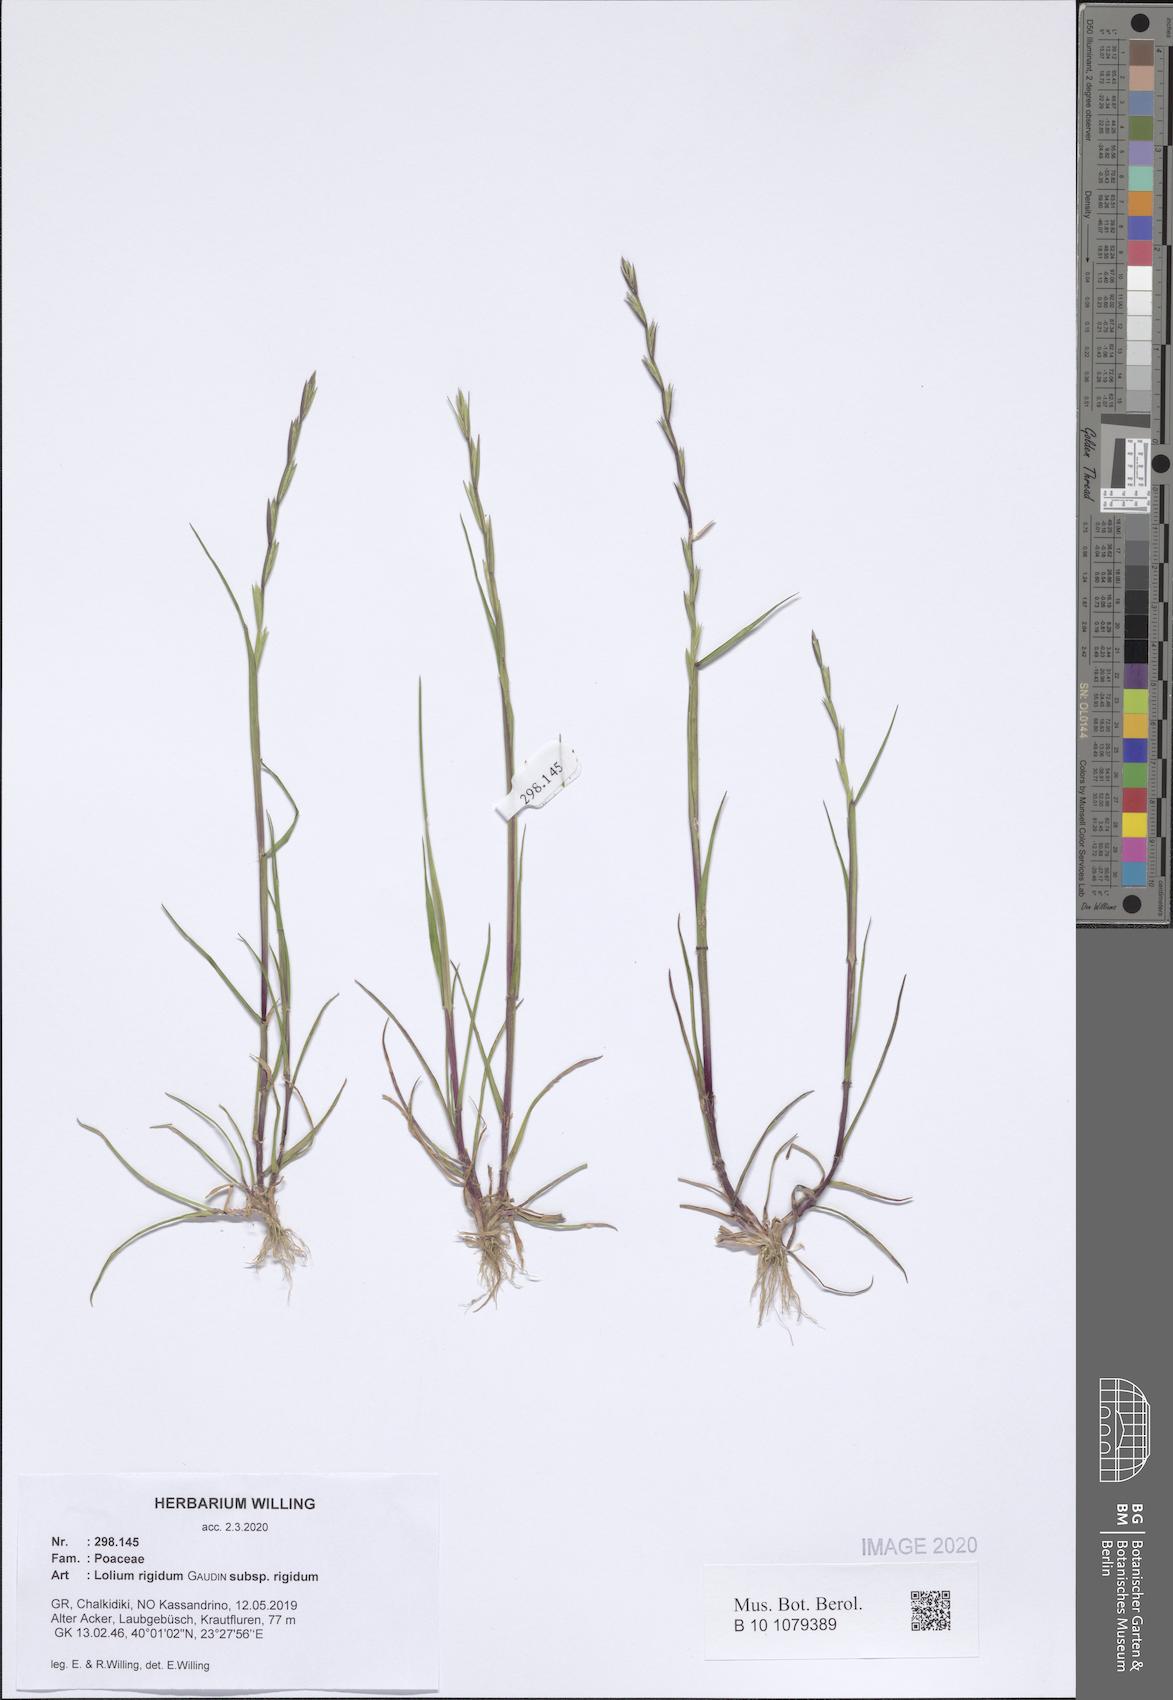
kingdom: Plantae
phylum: Tracheophyta
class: Liliopsida
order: Poales
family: Poaceae
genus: Lolium
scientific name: Lolium rigidum
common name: Wimmera ryegrass
